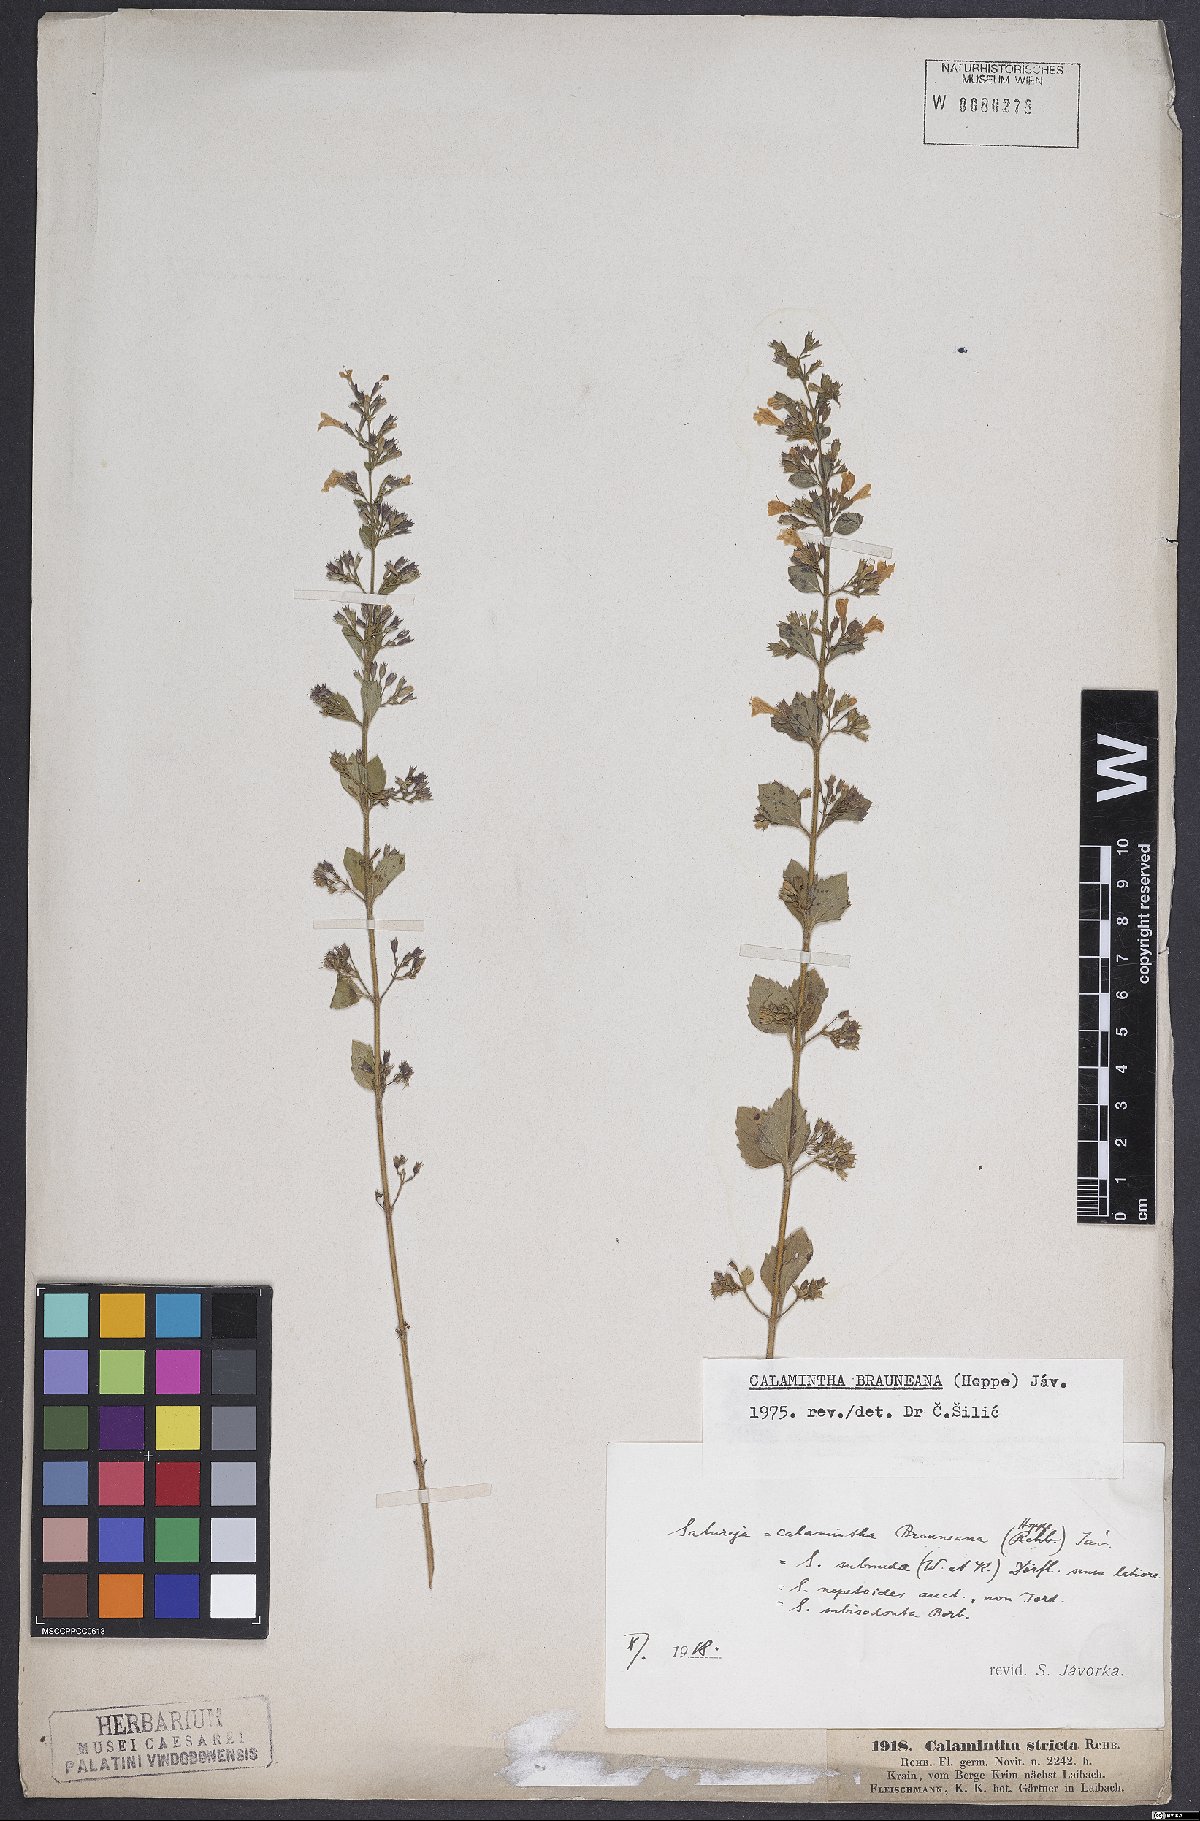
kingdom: Plantae
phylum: Tracheophyta
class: Magnoliopsida
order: Lamiales
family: Lamiaceae
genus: Clinopodium
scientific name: Clinopodium nepeta
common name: Lesser calamint
